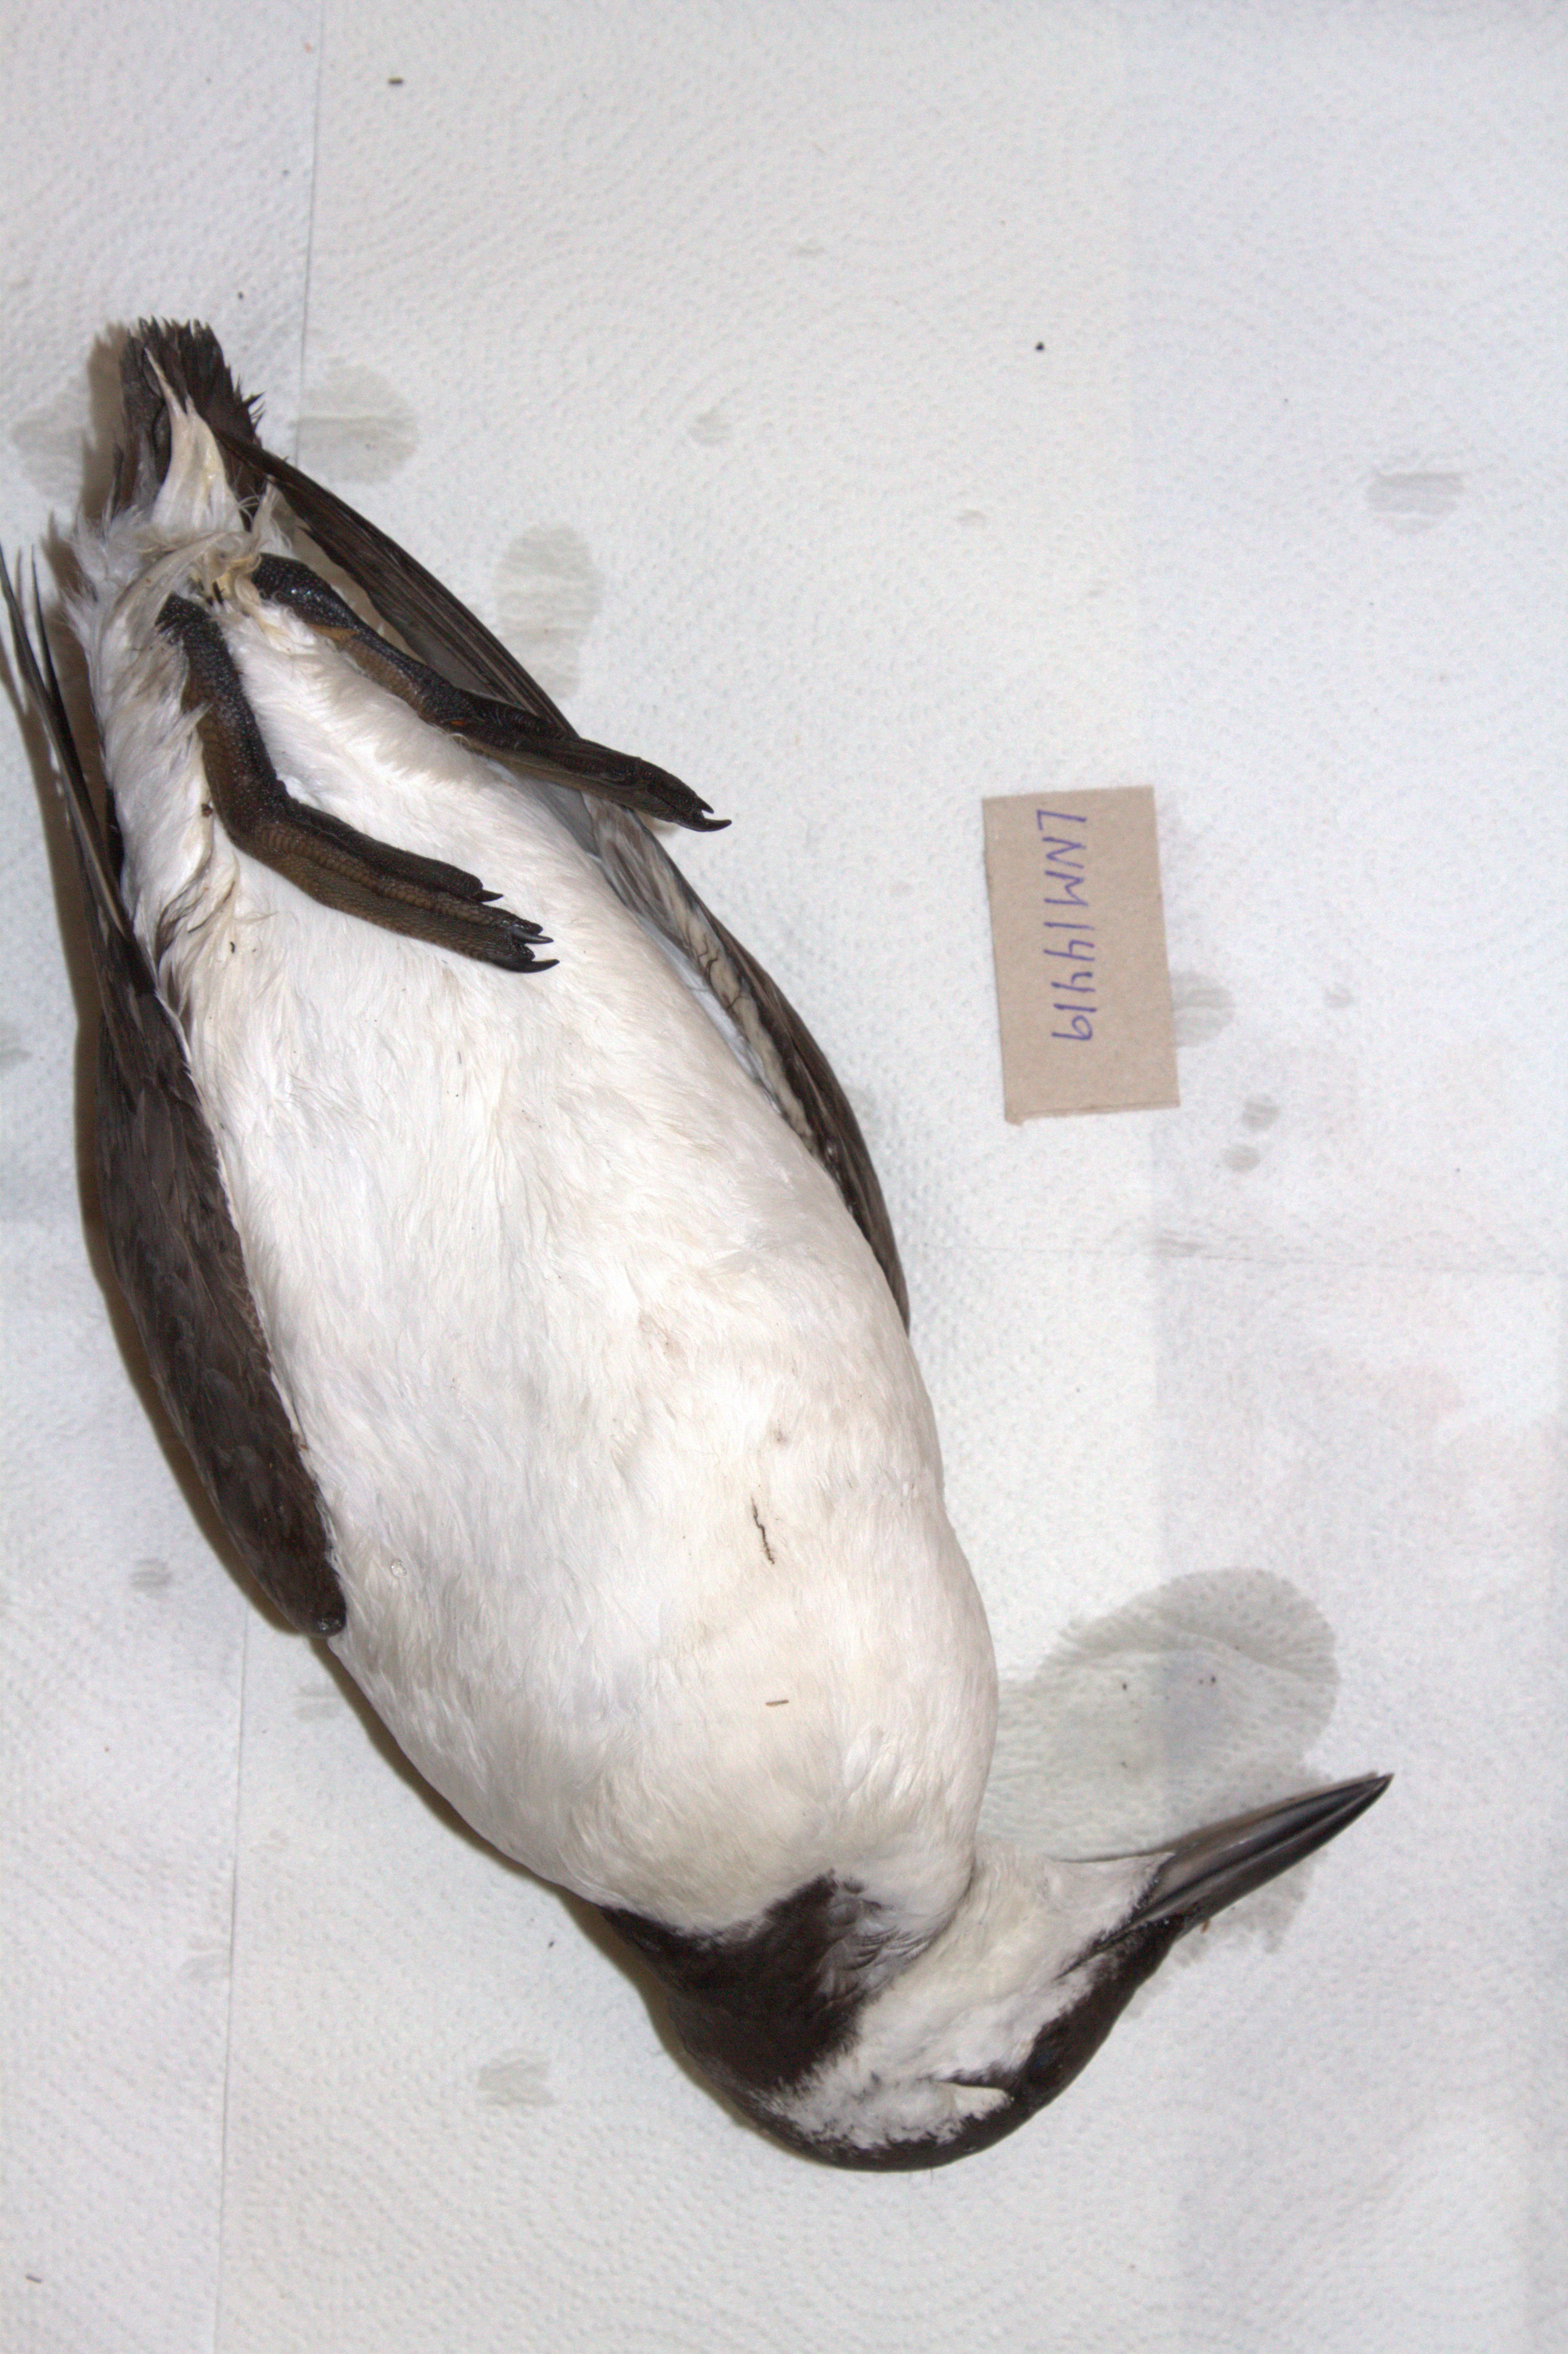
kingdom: Animalia
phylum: Chordata
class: Aves
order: Charadriiformes
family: Alcidae
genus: Uria
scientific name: Uria aalge
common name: Common murre
